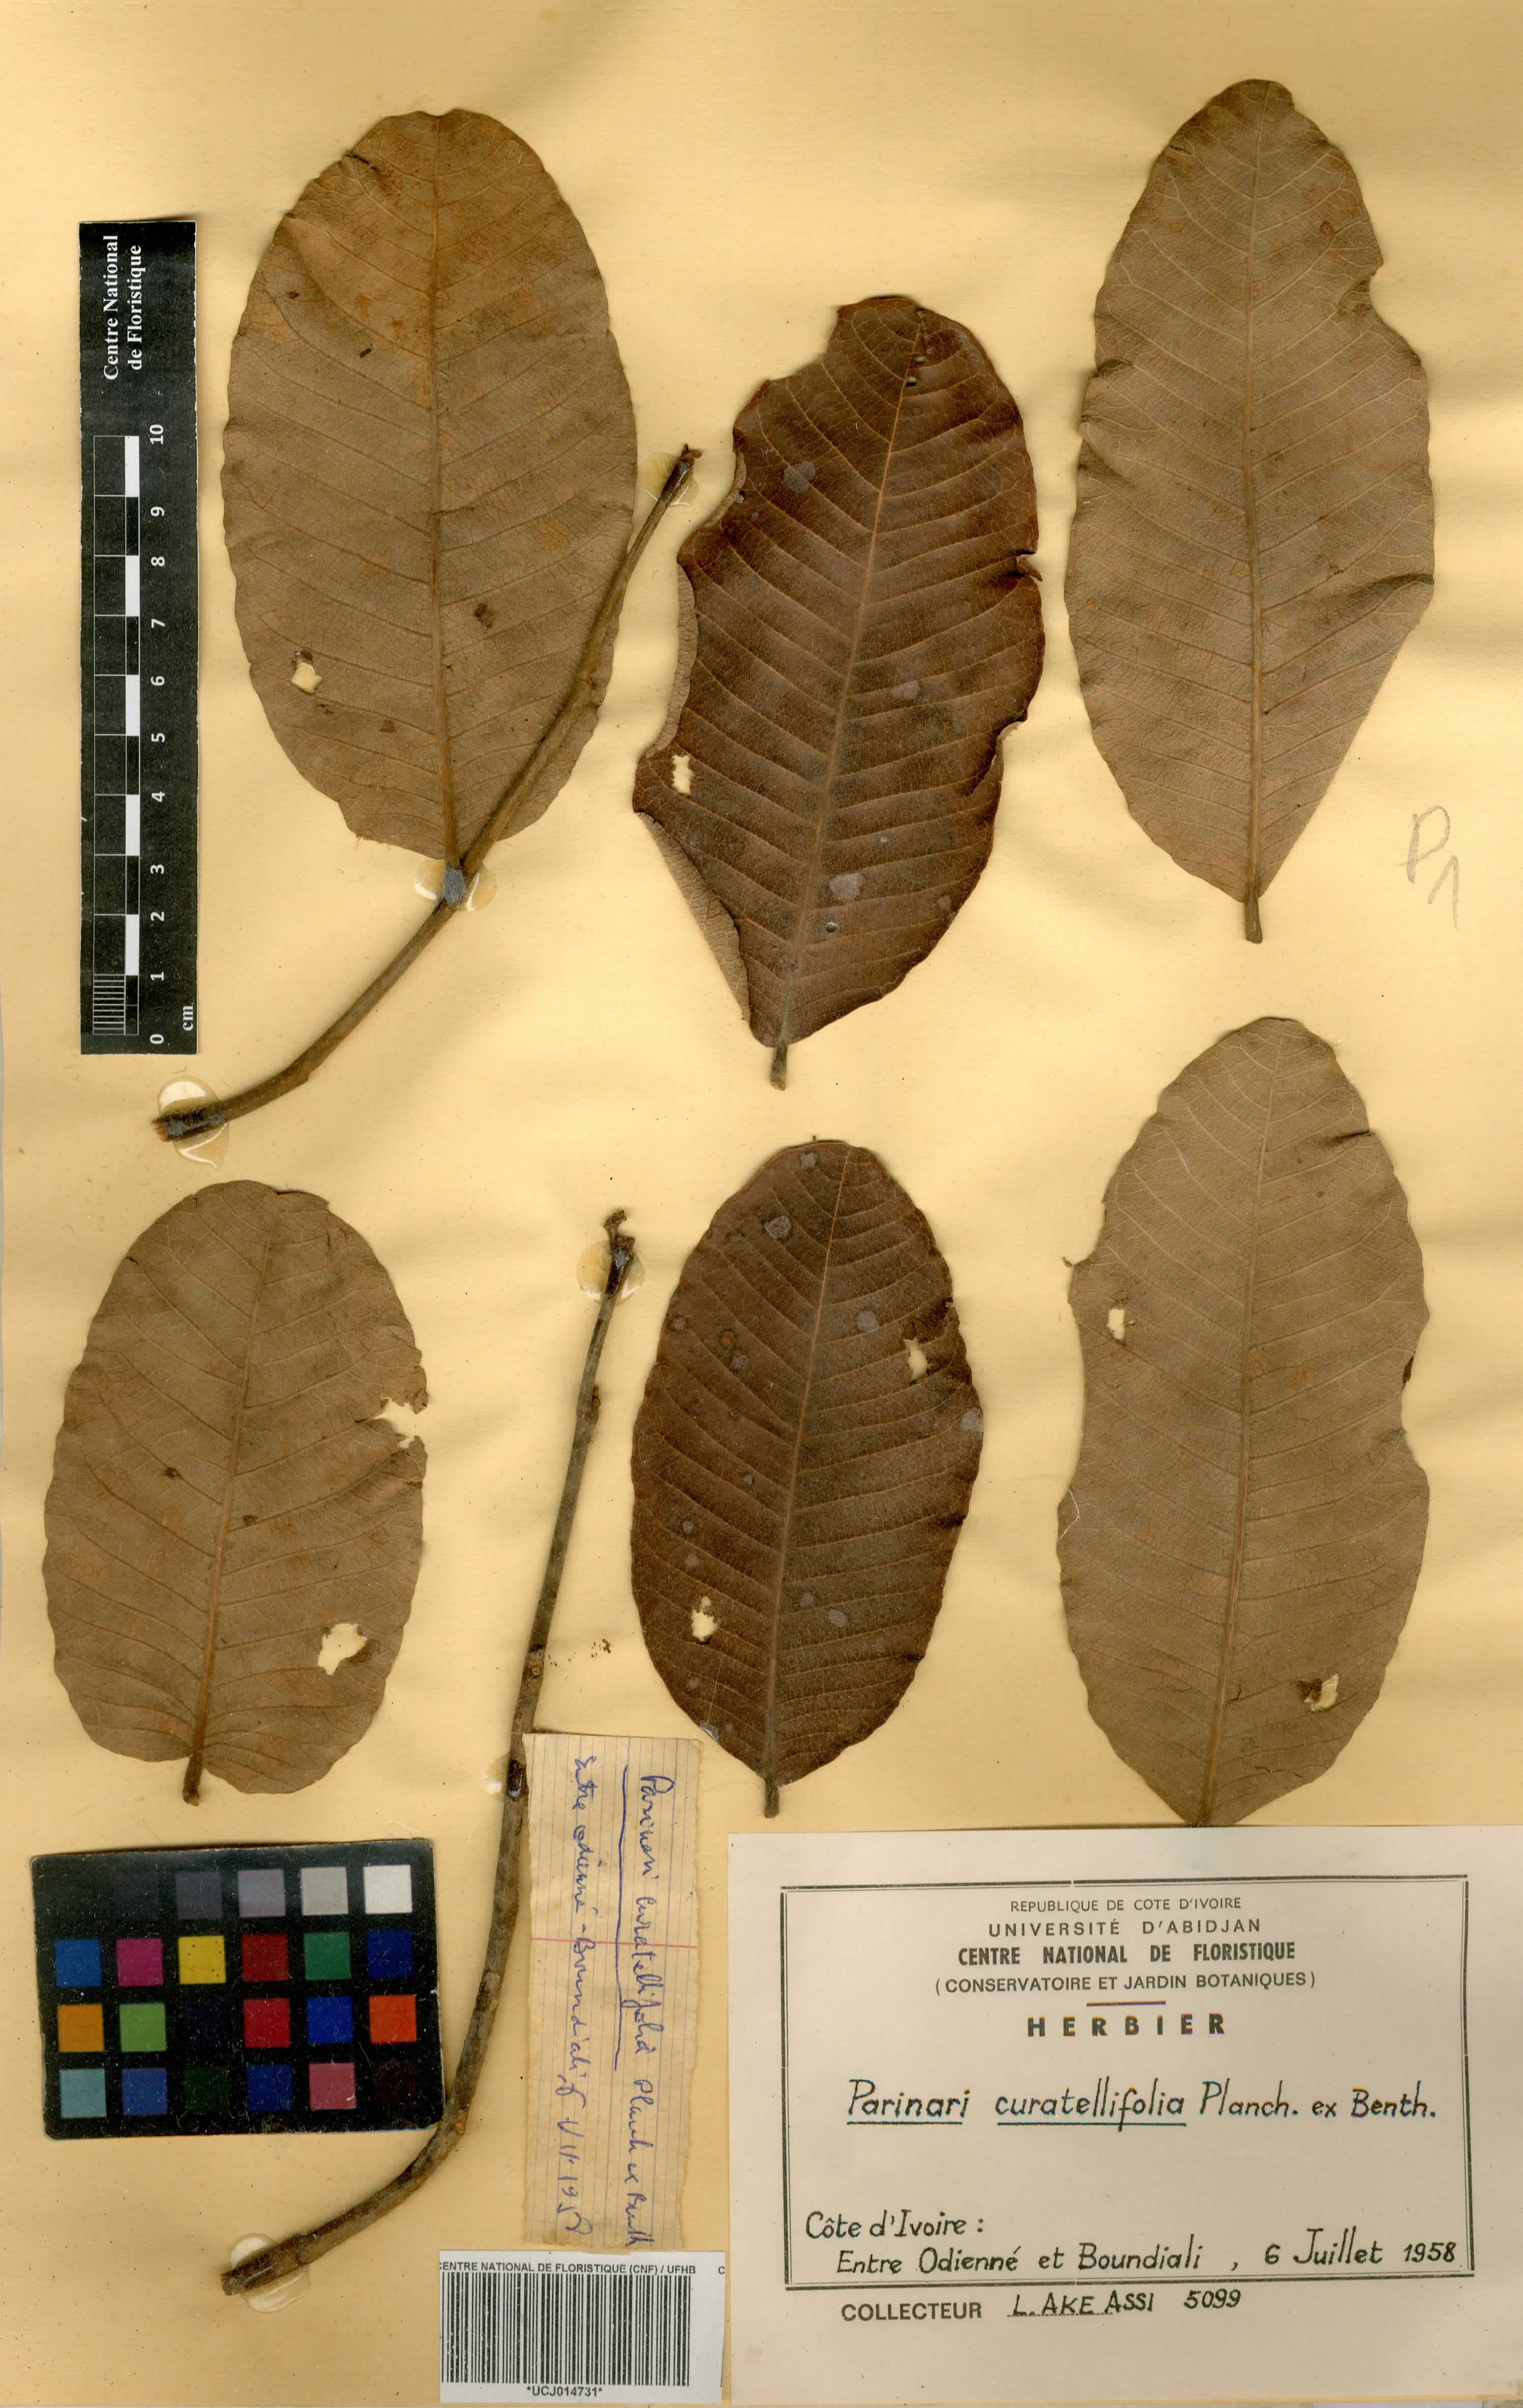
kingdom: Plantae
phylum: Tracheophyta
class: Magnoliopsida
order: Malpighiales
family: Chrysobalanaceae
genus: Parinari
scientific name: Parinari curatellifolia
